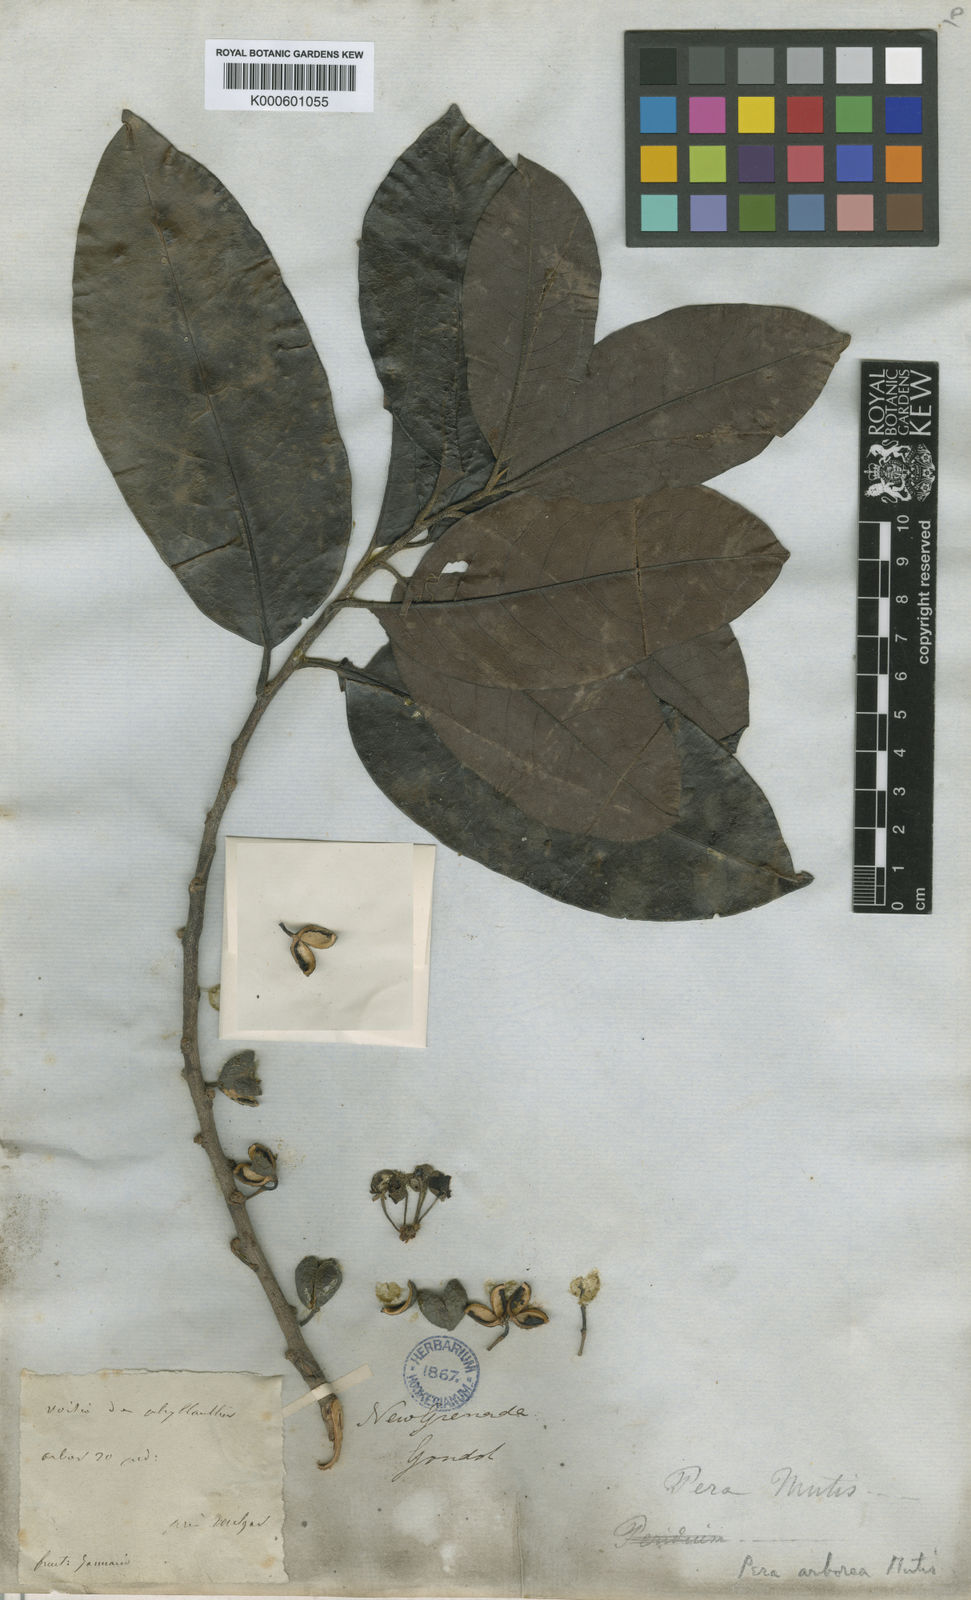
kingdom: Plantae
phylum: Tracheophyta
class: Magnoliopsida
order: Malpighiales
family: Peraceae
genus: Pera
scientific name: Pera arborea
